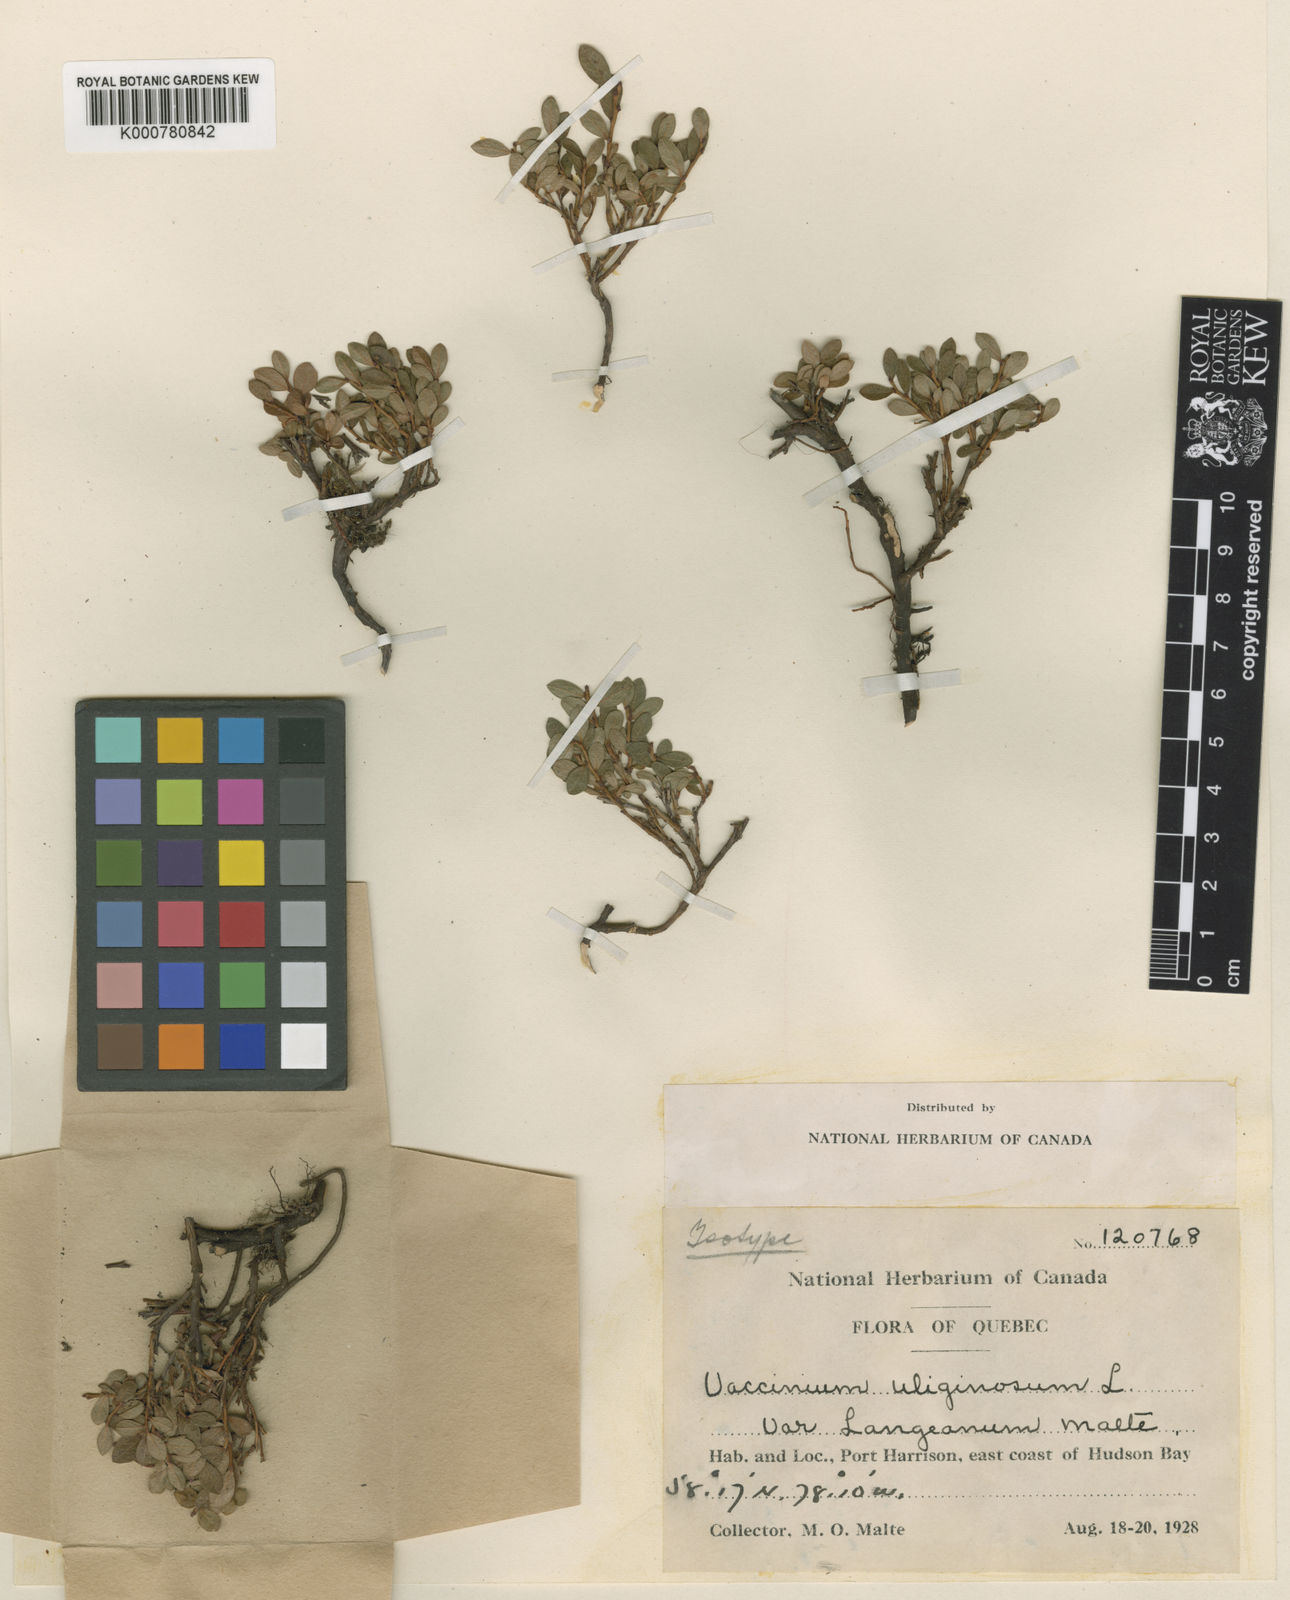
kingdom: Plantae
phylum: Tracheophyta
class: Magnoliopsida
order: Ericales
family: Ericaceae
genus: Vaccinium
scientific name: Vaccinium uliginosum
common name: Bog bilberry
